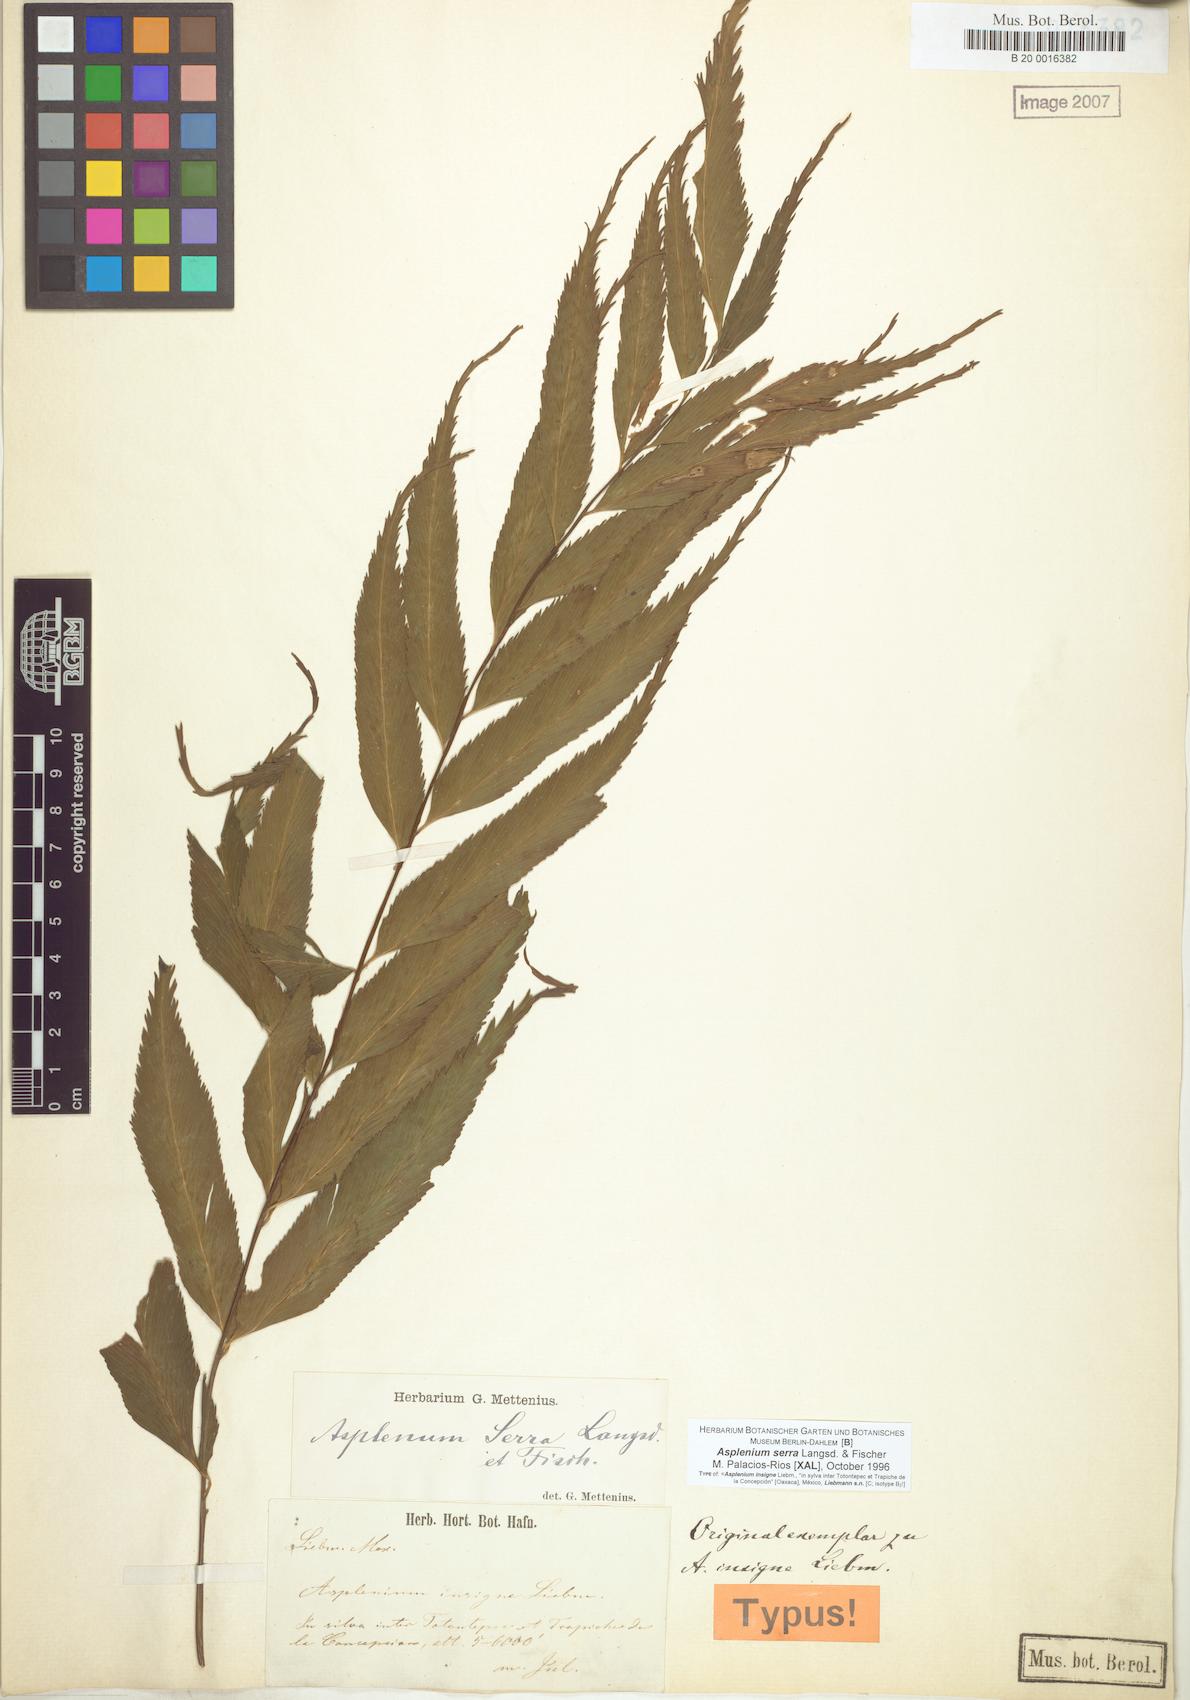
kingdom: Plantae
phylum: Tracheophyta
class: Polypodiopsida
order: Polypodiales
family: Aspleniaceae
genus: Asplenium
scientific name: Asplenium serra
